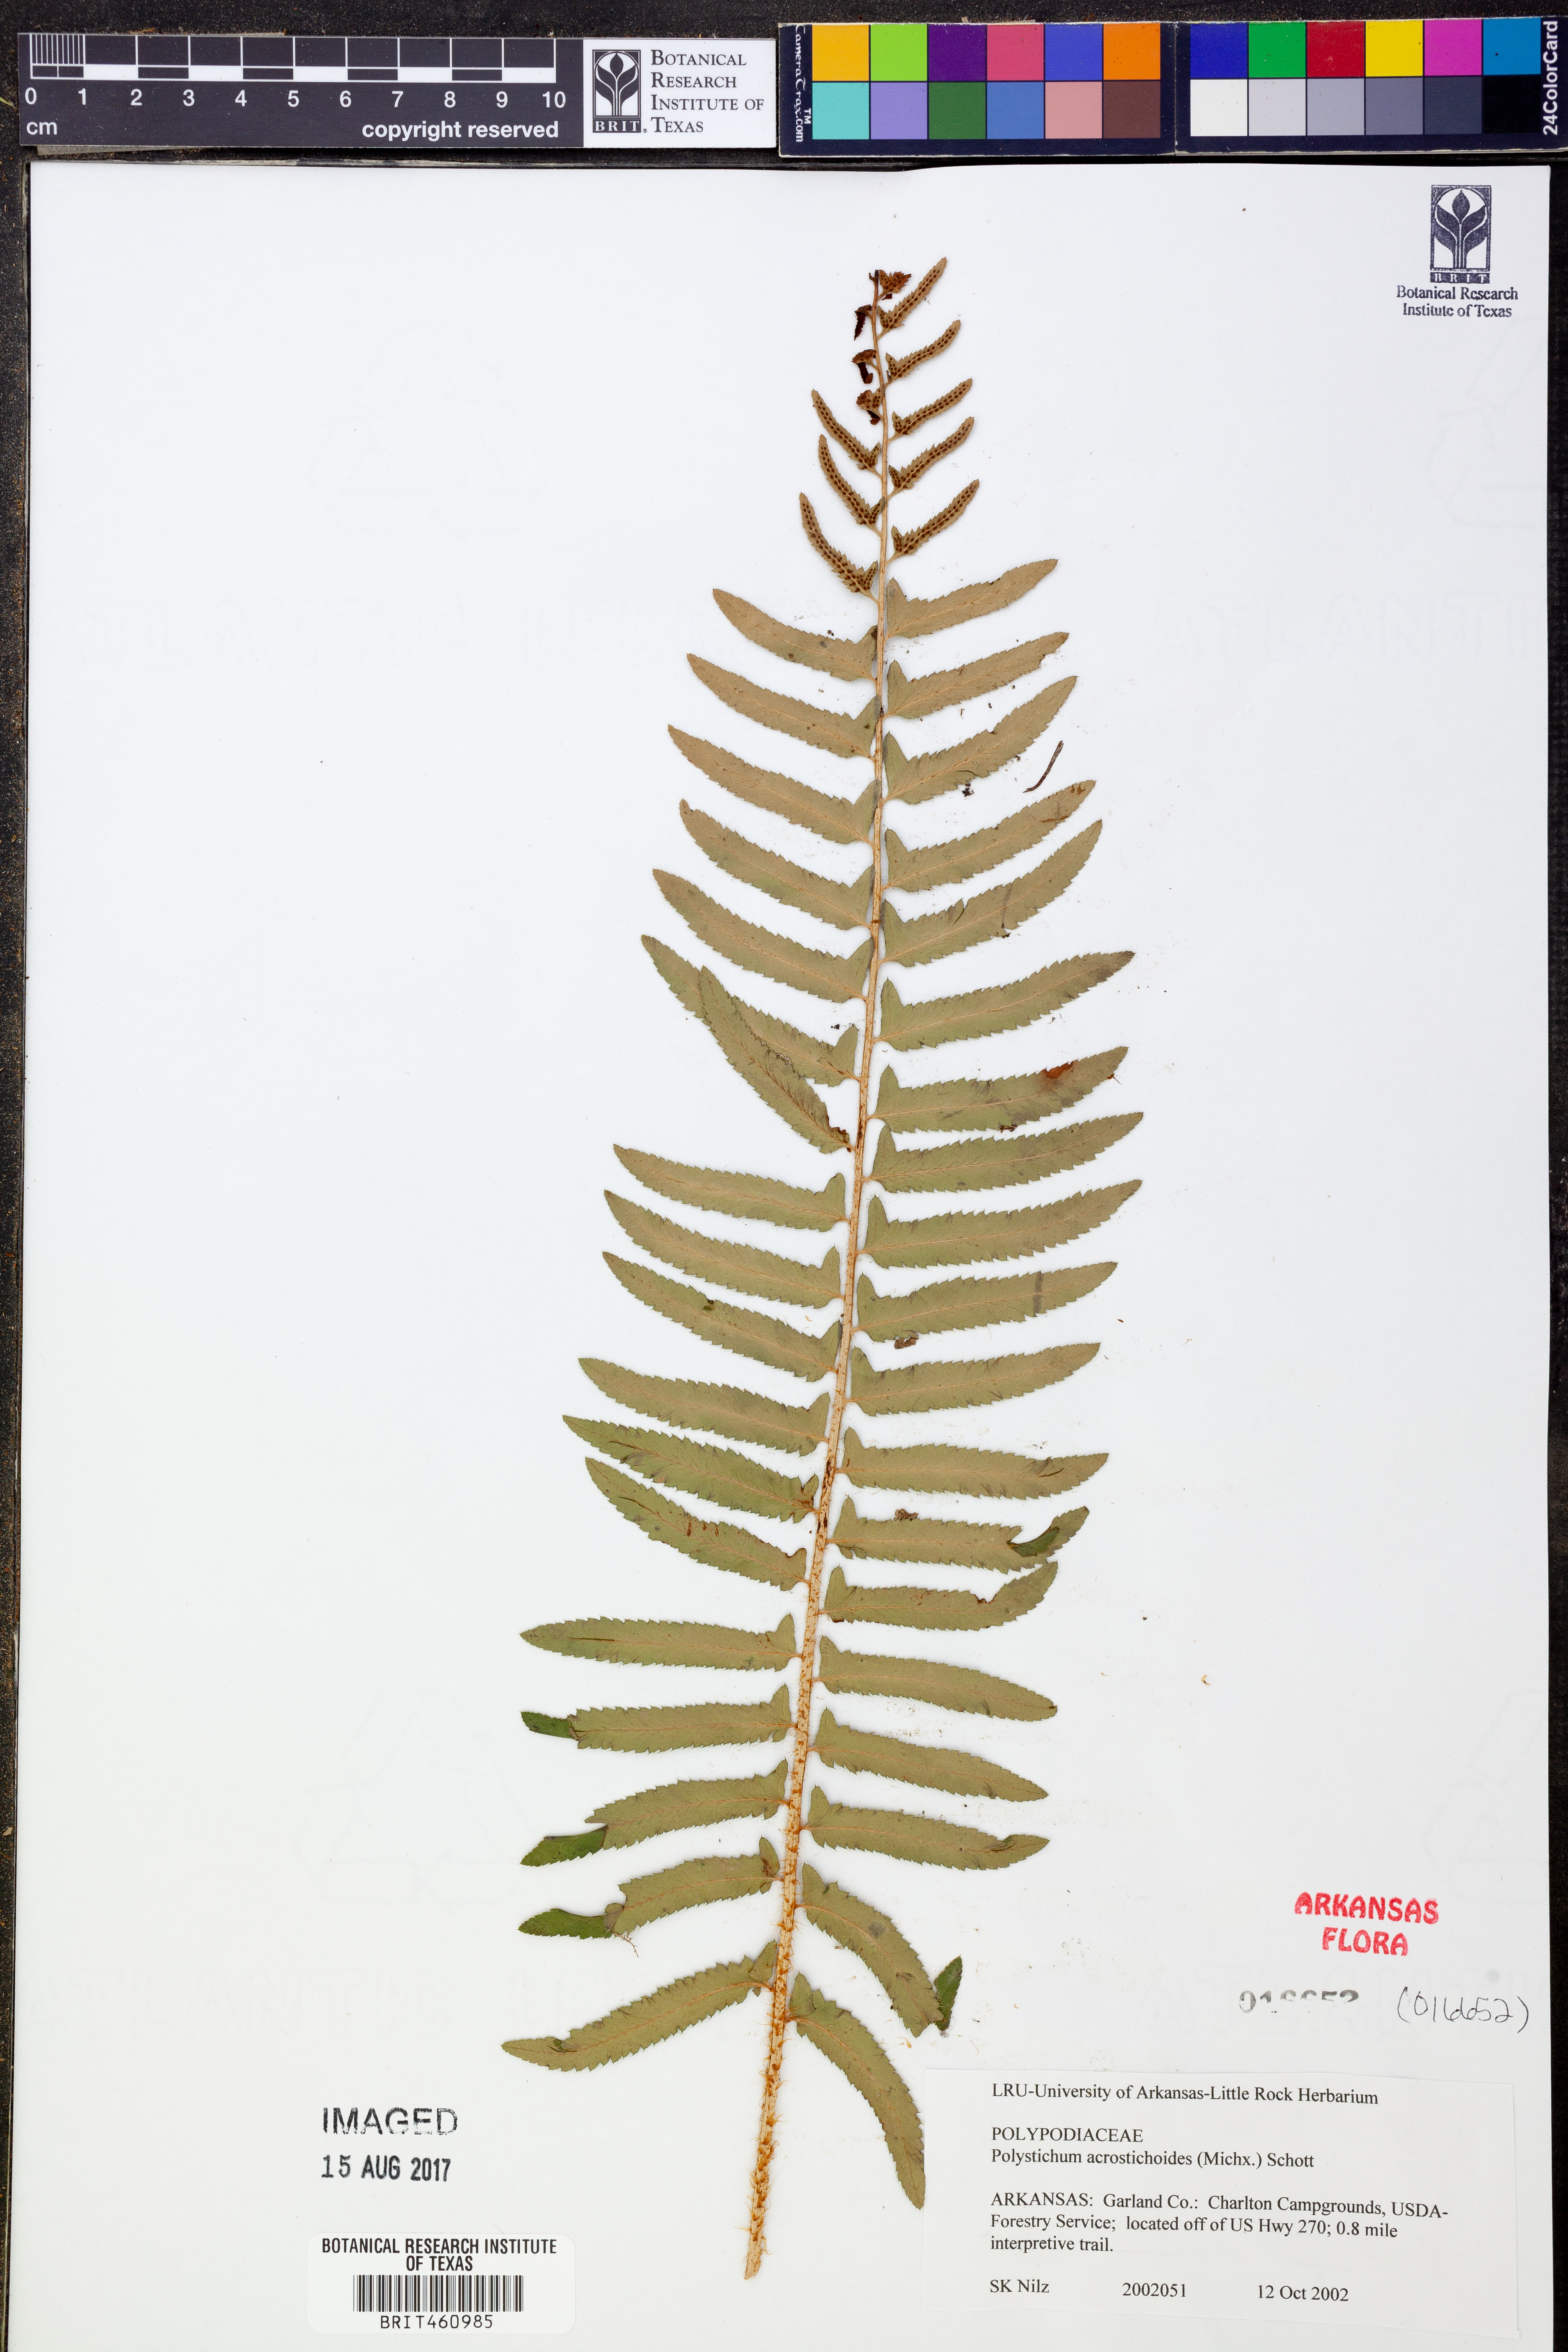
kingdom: Plantae
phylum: Tracheophyta
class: Polypodiopsida
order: Polypodiales
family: Dryopteridaceae
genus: Polystichum
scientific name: Polystichum acrostichoides
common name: Christmas fern
